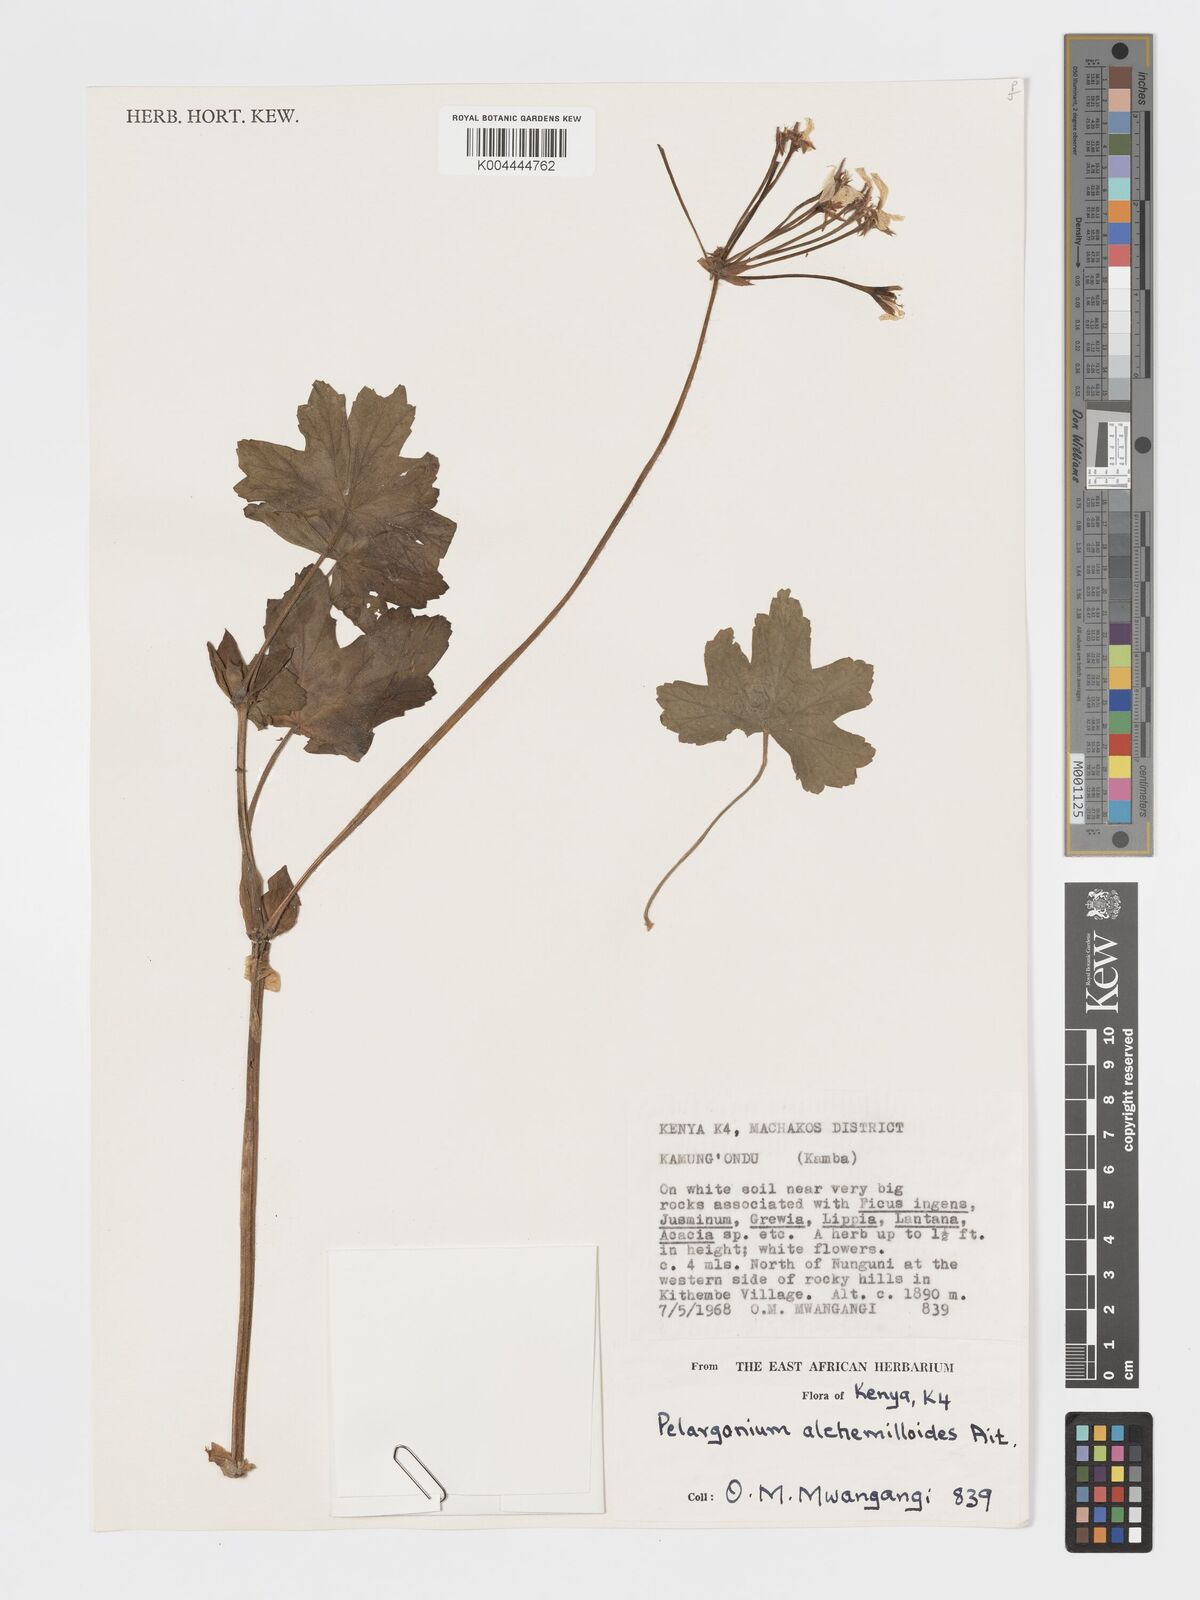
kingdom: Plantae
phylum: Tracheophyta
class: Magnoliopsida
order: Geraniales
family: Geraniaceae
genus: Pelargonium
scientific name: Pelargonium alchemilloides
